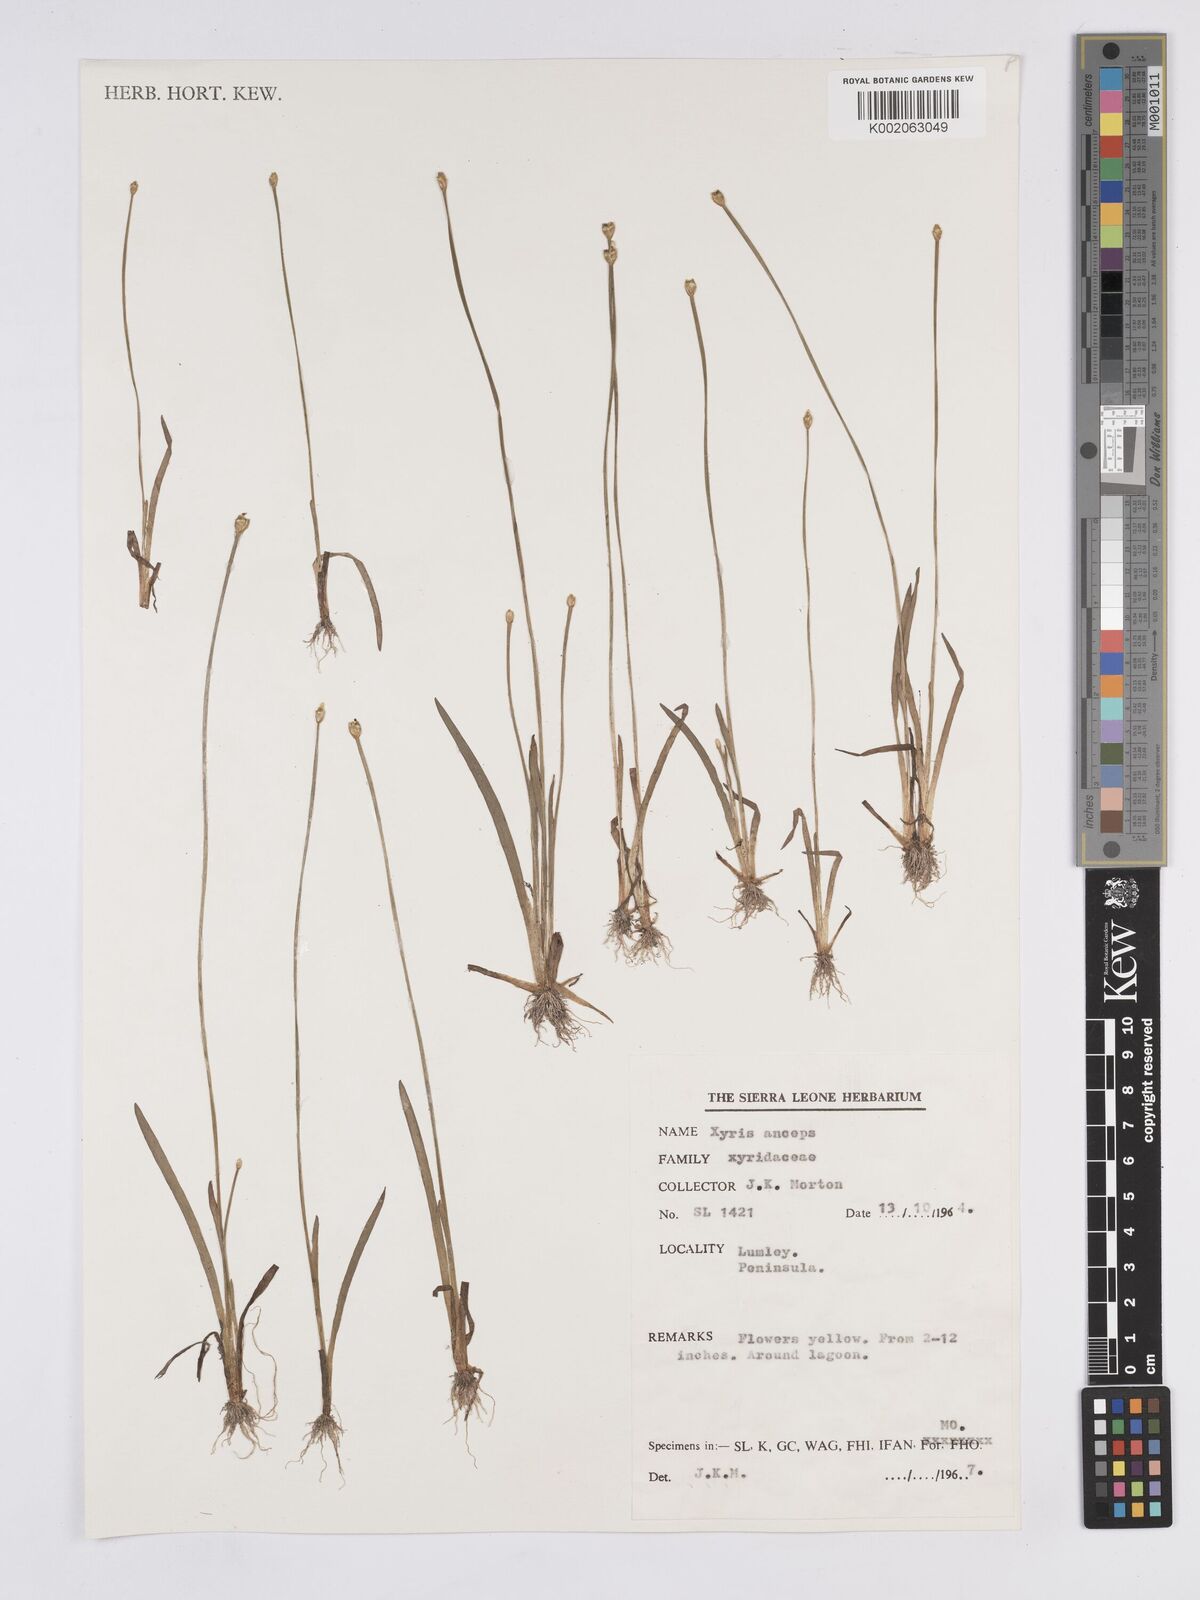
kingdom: Plantae
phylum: Tracheophyta
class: Liliopsida
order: Poales
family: Xyridaceae
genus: Xyris
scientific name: Xyris anceps
